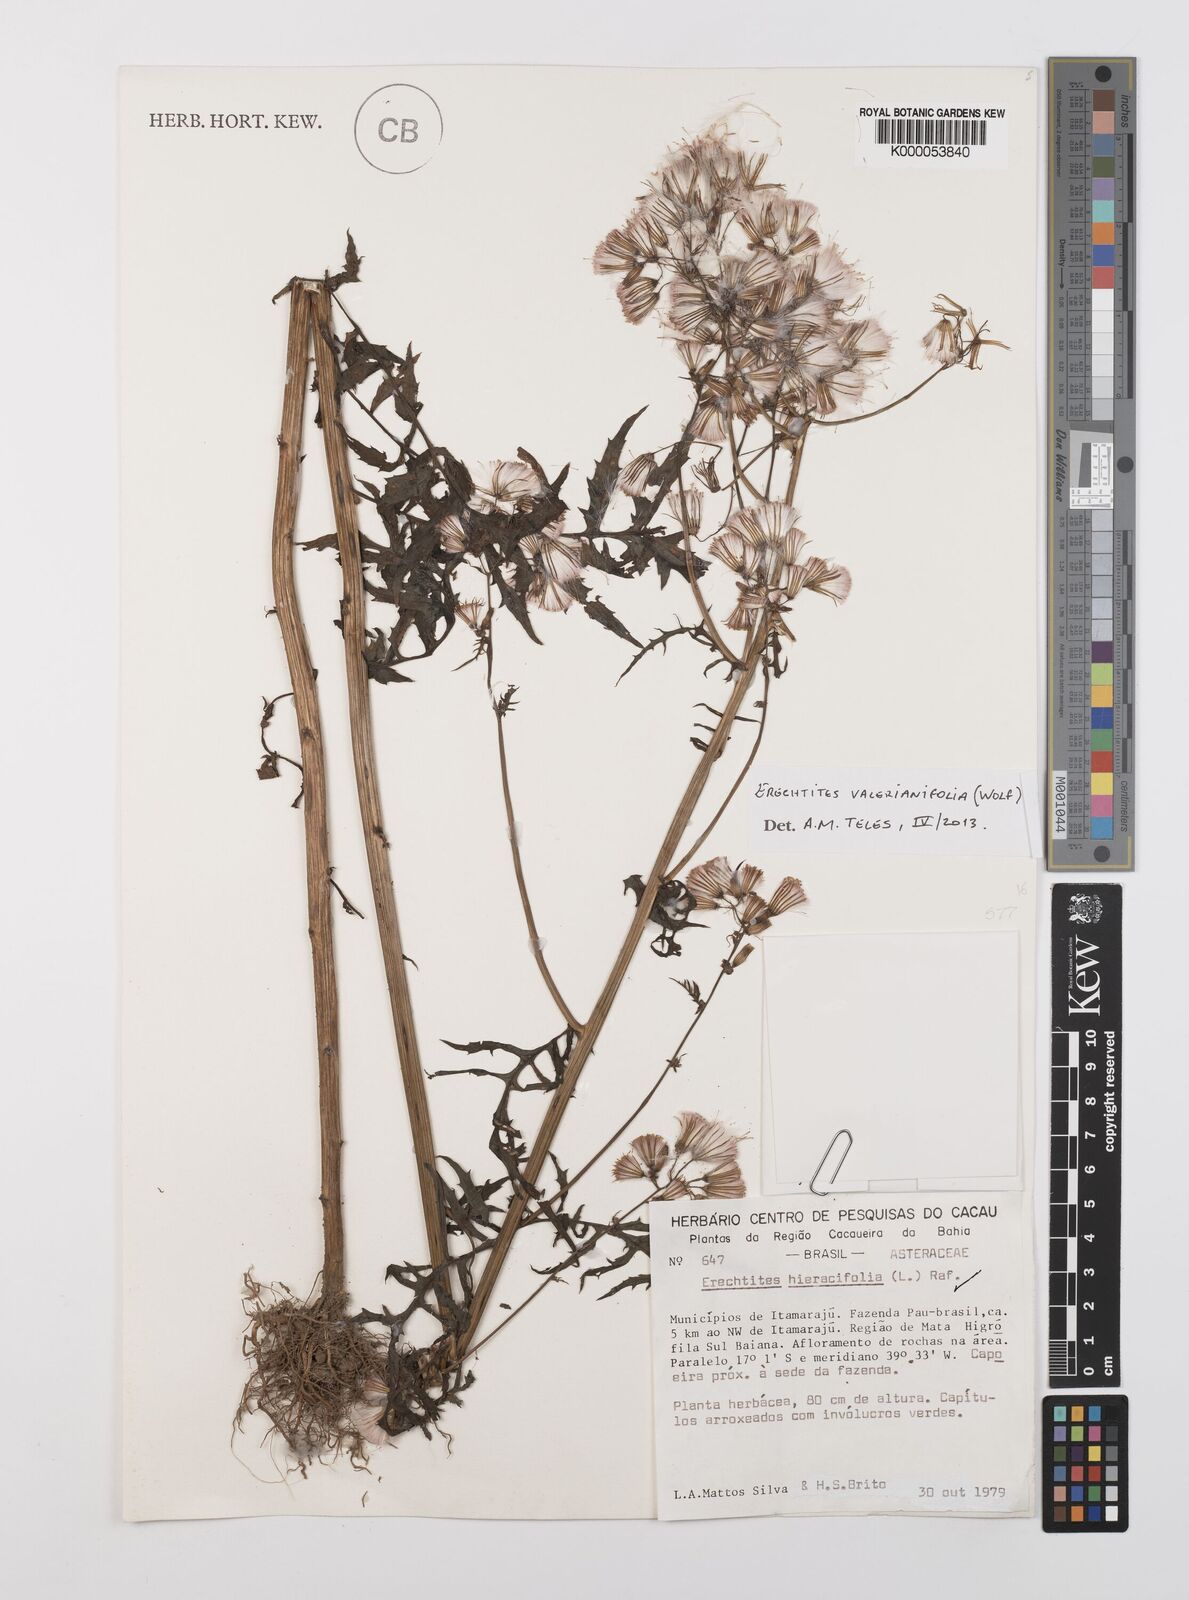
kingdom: Plantae
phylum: Tracheophyta
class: Magnoliopsida
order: Asterales
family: Asteraceae
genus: Erechtites
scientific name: Erechtites valerianifolius
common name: Tropical burnweed
